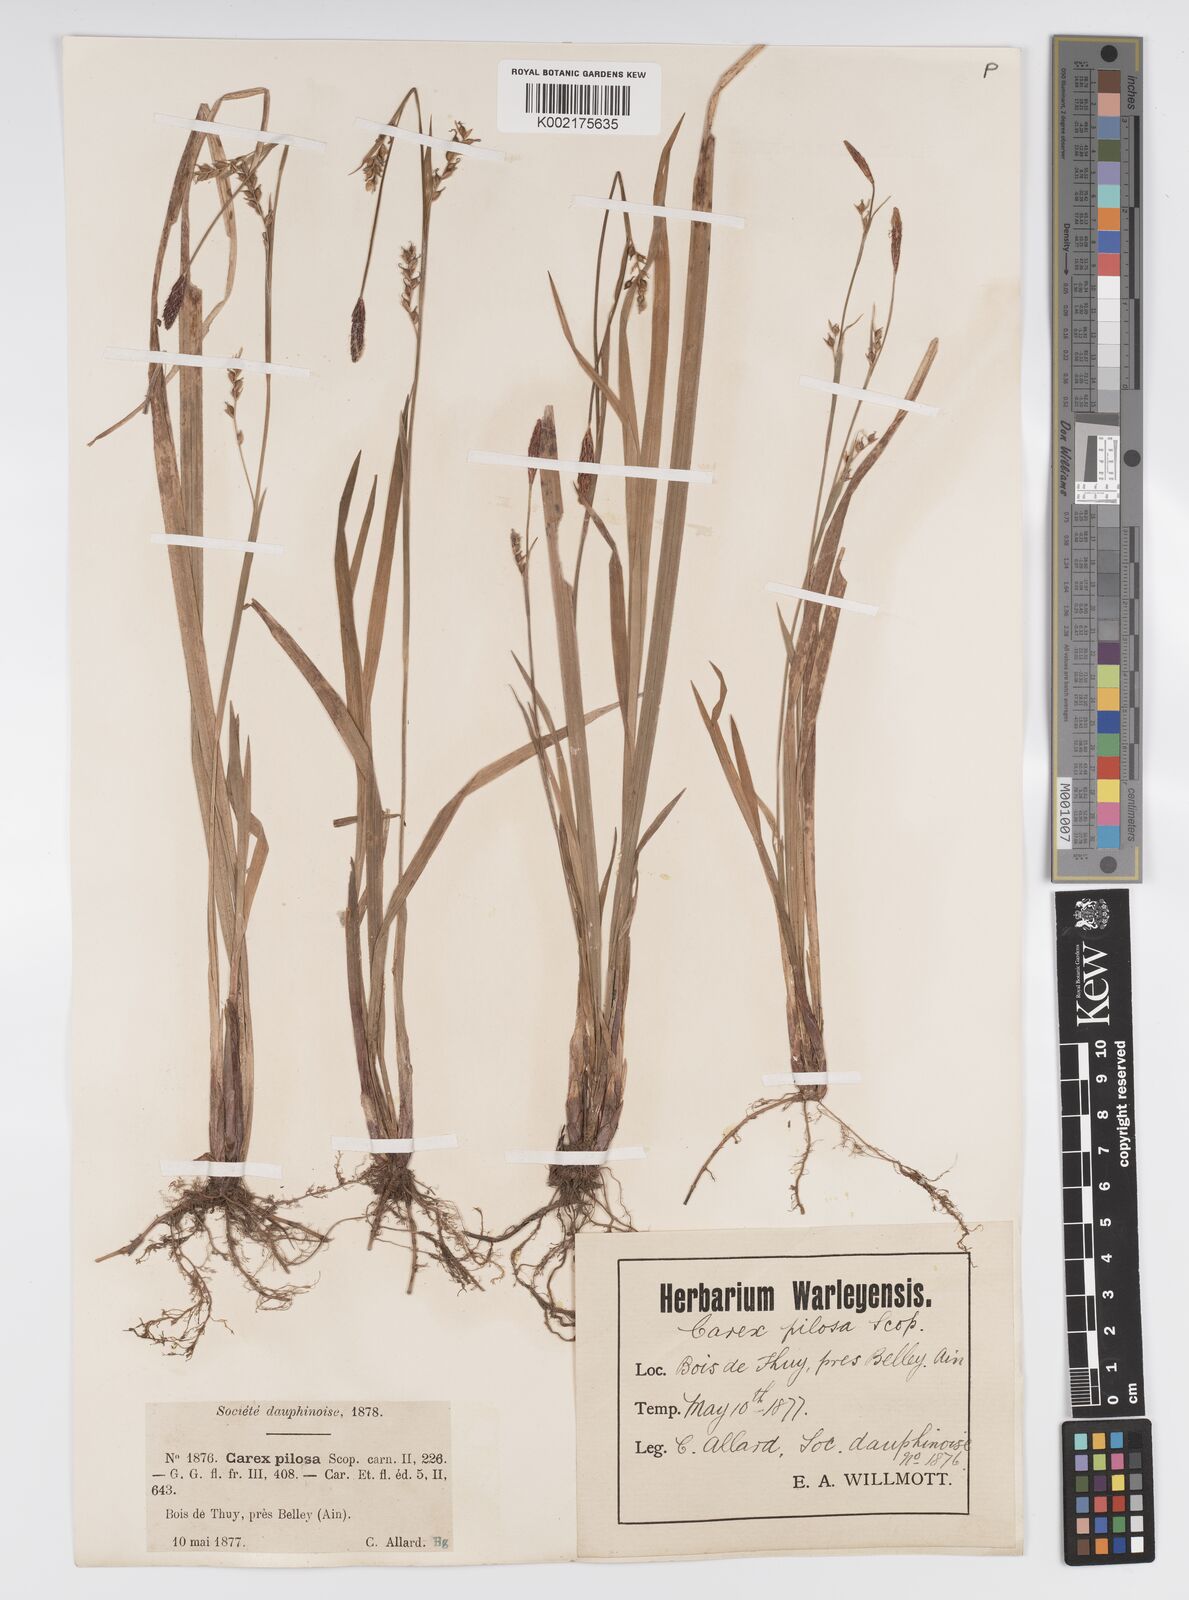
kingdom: Plantae
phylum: Tracheophyta
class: Liliopsida
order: Poales
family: Cyperaceae
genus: Carex
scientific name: Carex pilosa
